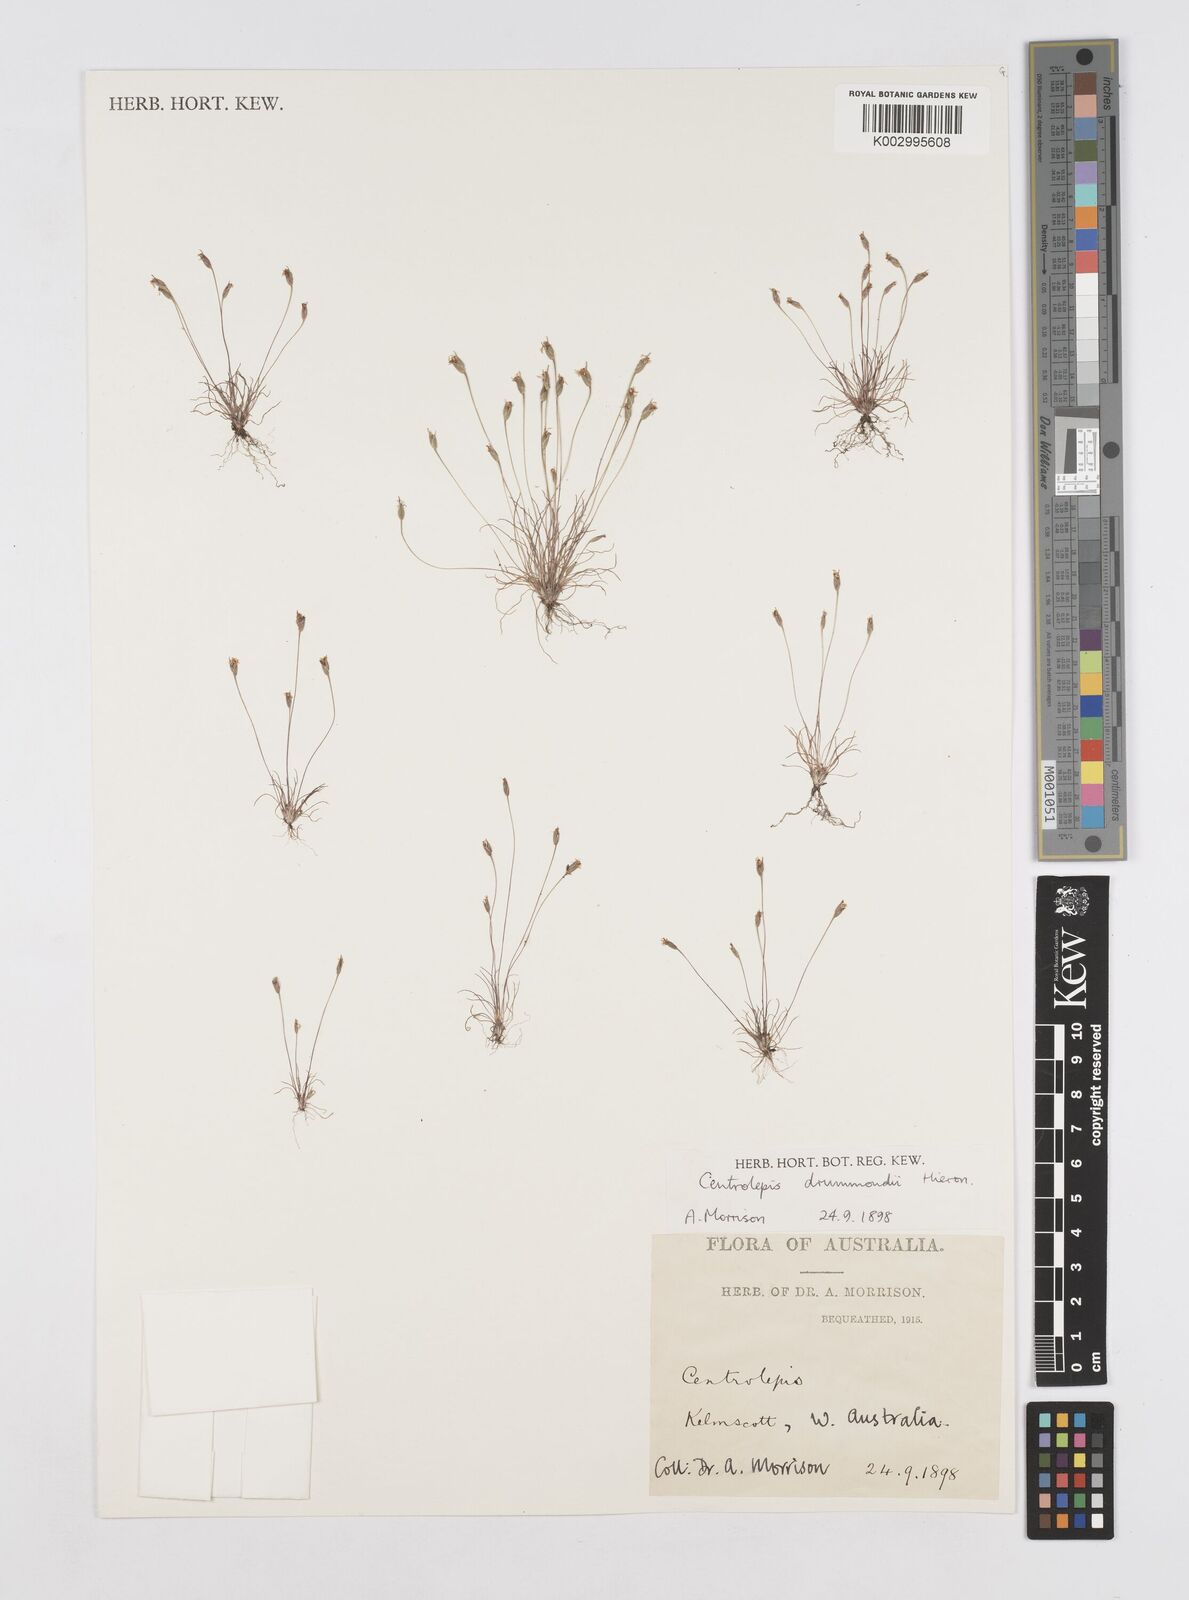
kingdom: Plantae
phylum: Tracheophyta
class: Liliopsida
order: Poales
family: Restionaceae
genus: Centrolepis
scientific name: Centrolepis drummondiana
